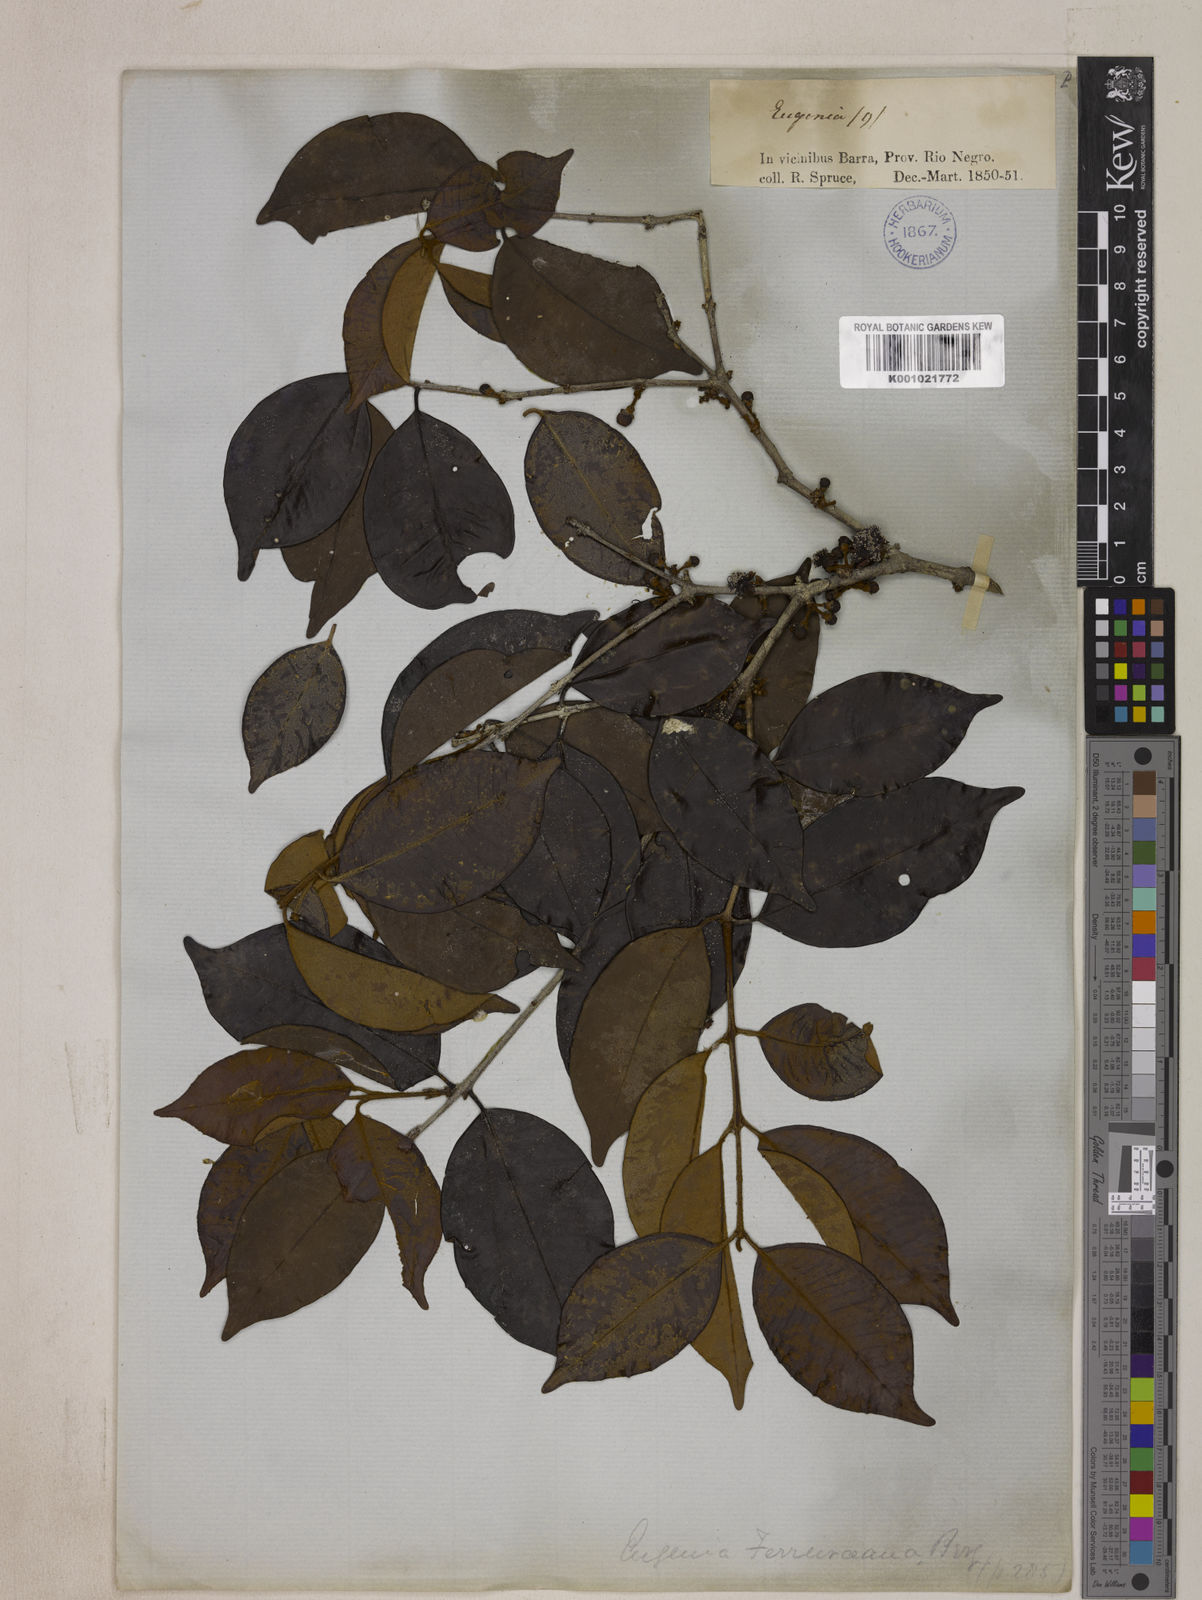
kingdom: Plantae
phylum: Tracheophyta
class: Magnoliopsida
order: Myrtales
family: Myrtaceae
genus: Eugenia
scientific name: Eugenia ferreiraeana
